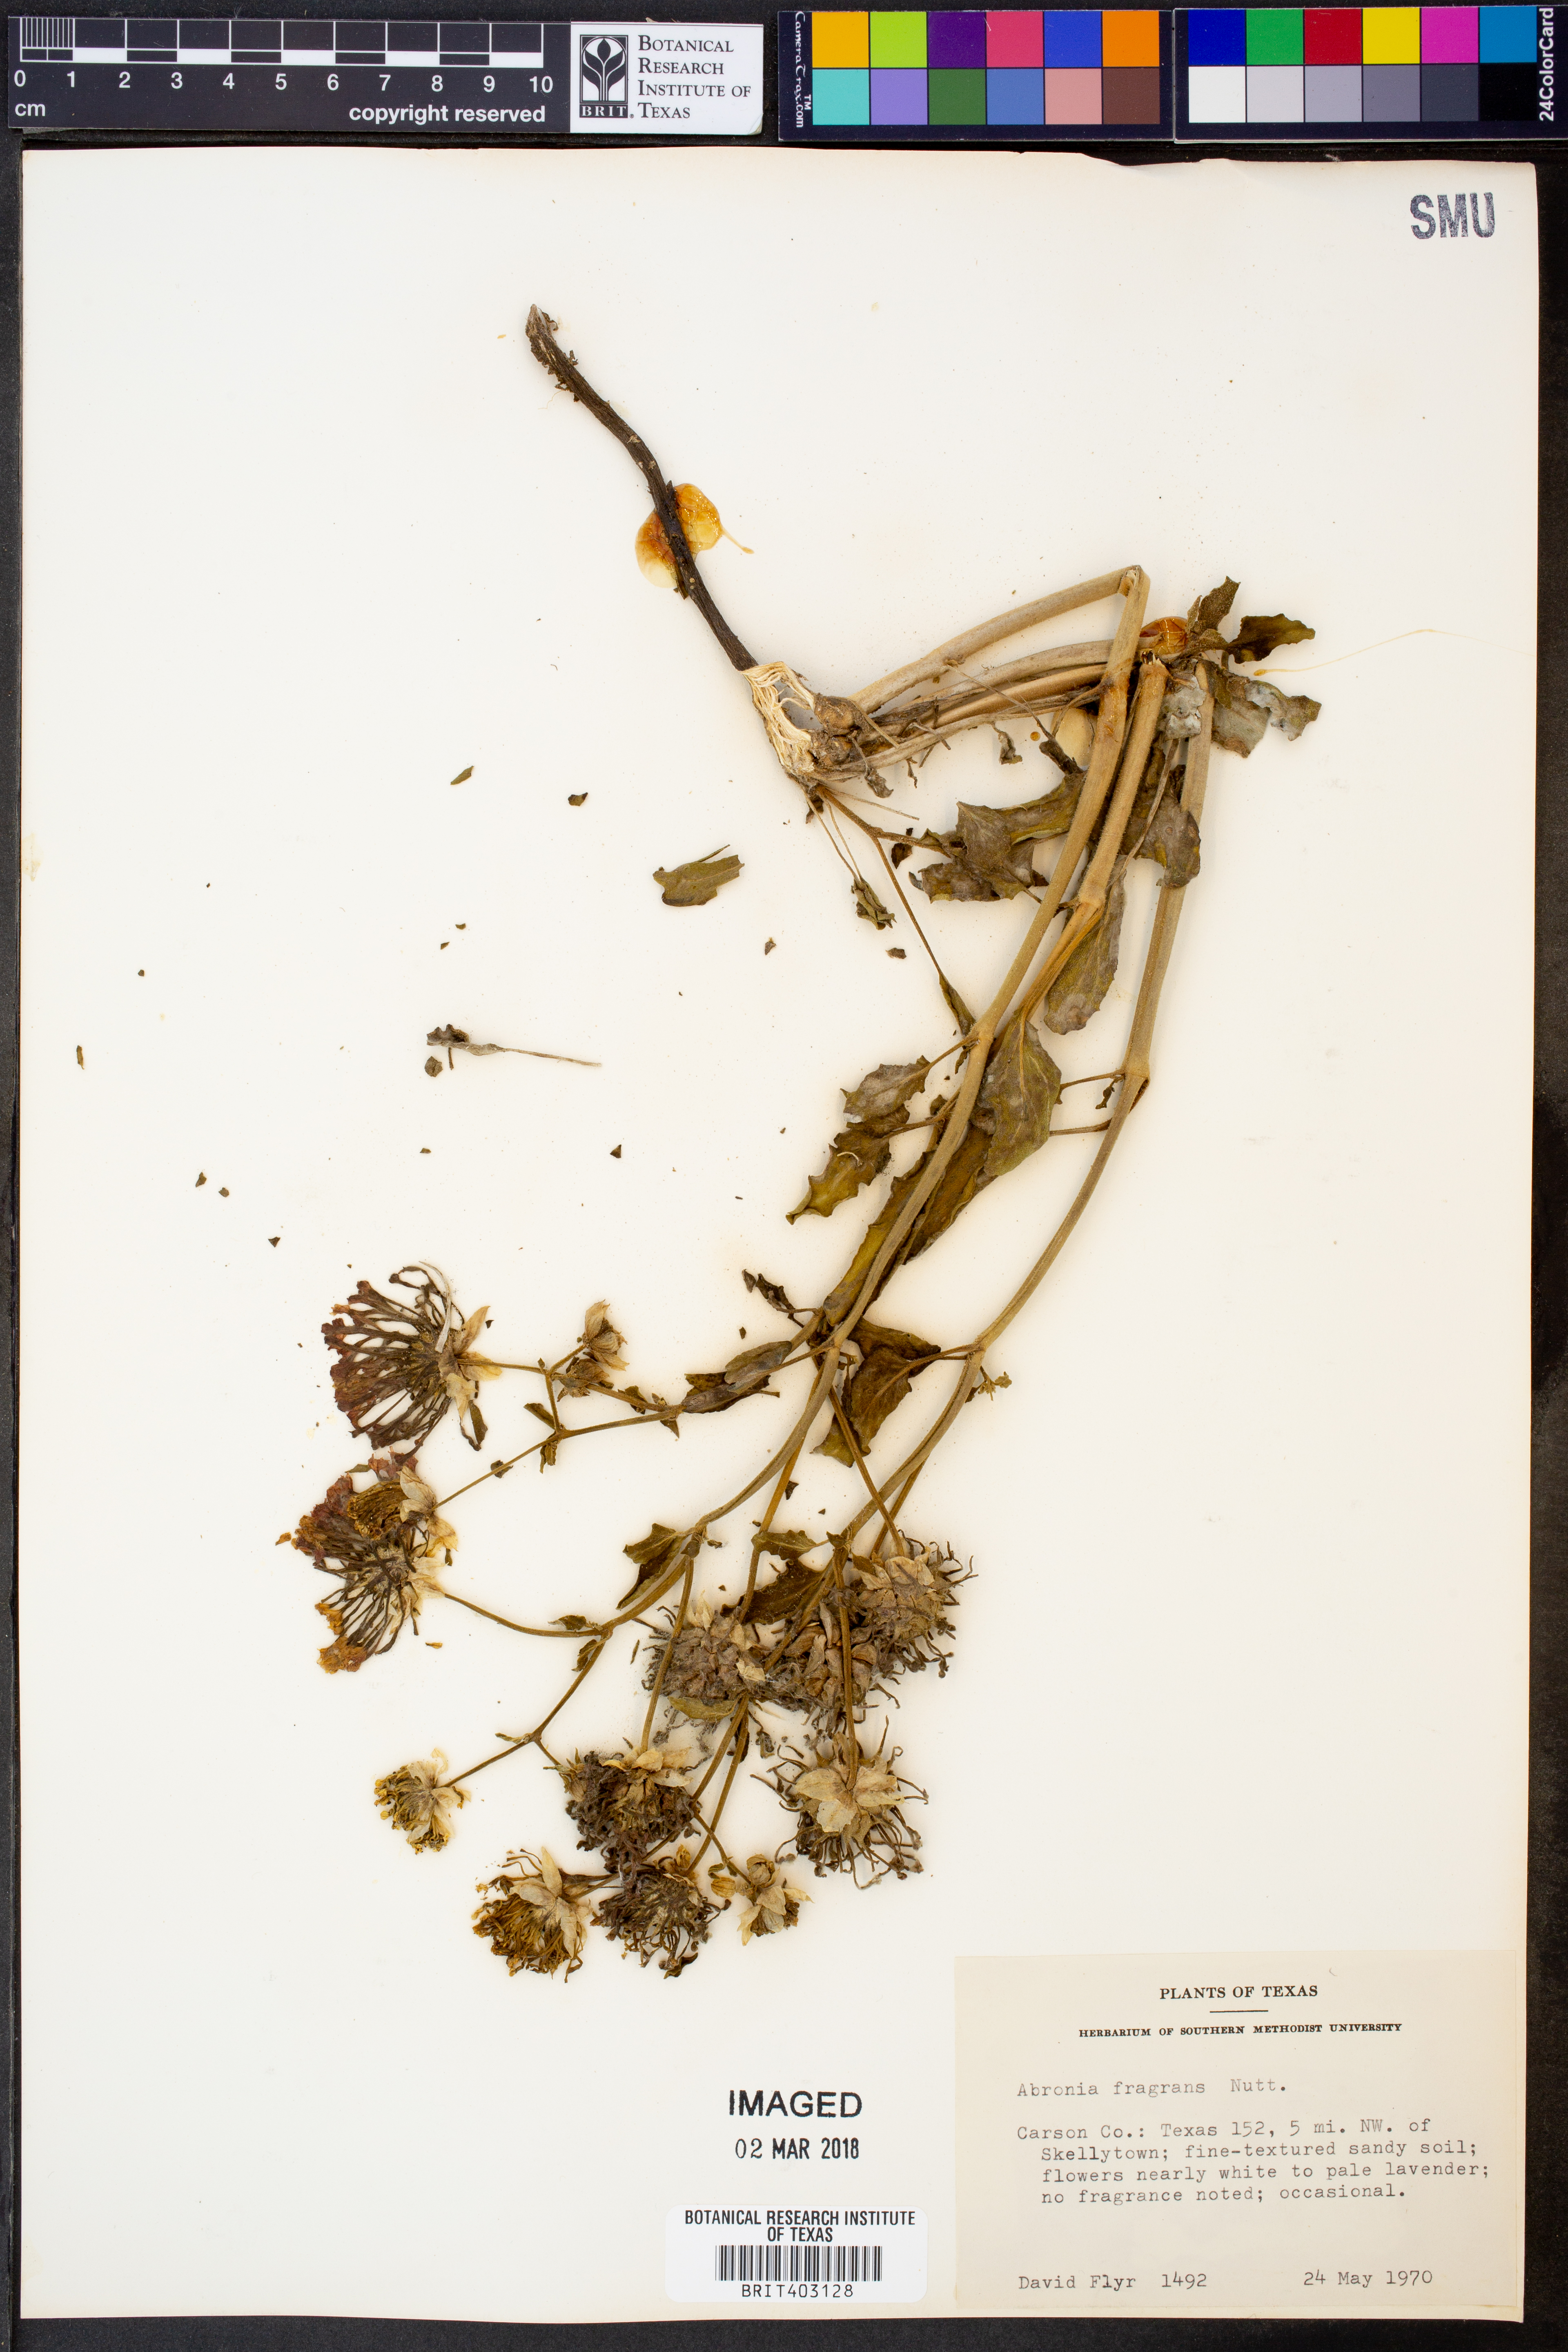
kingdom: Plantae
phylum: Tracheophyta
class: Magnoliopsida
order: Caryophyllales
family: Nyctaginaceae
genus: Abronia
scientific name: Abronia fragrans
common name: Fragrant sand-verbena
